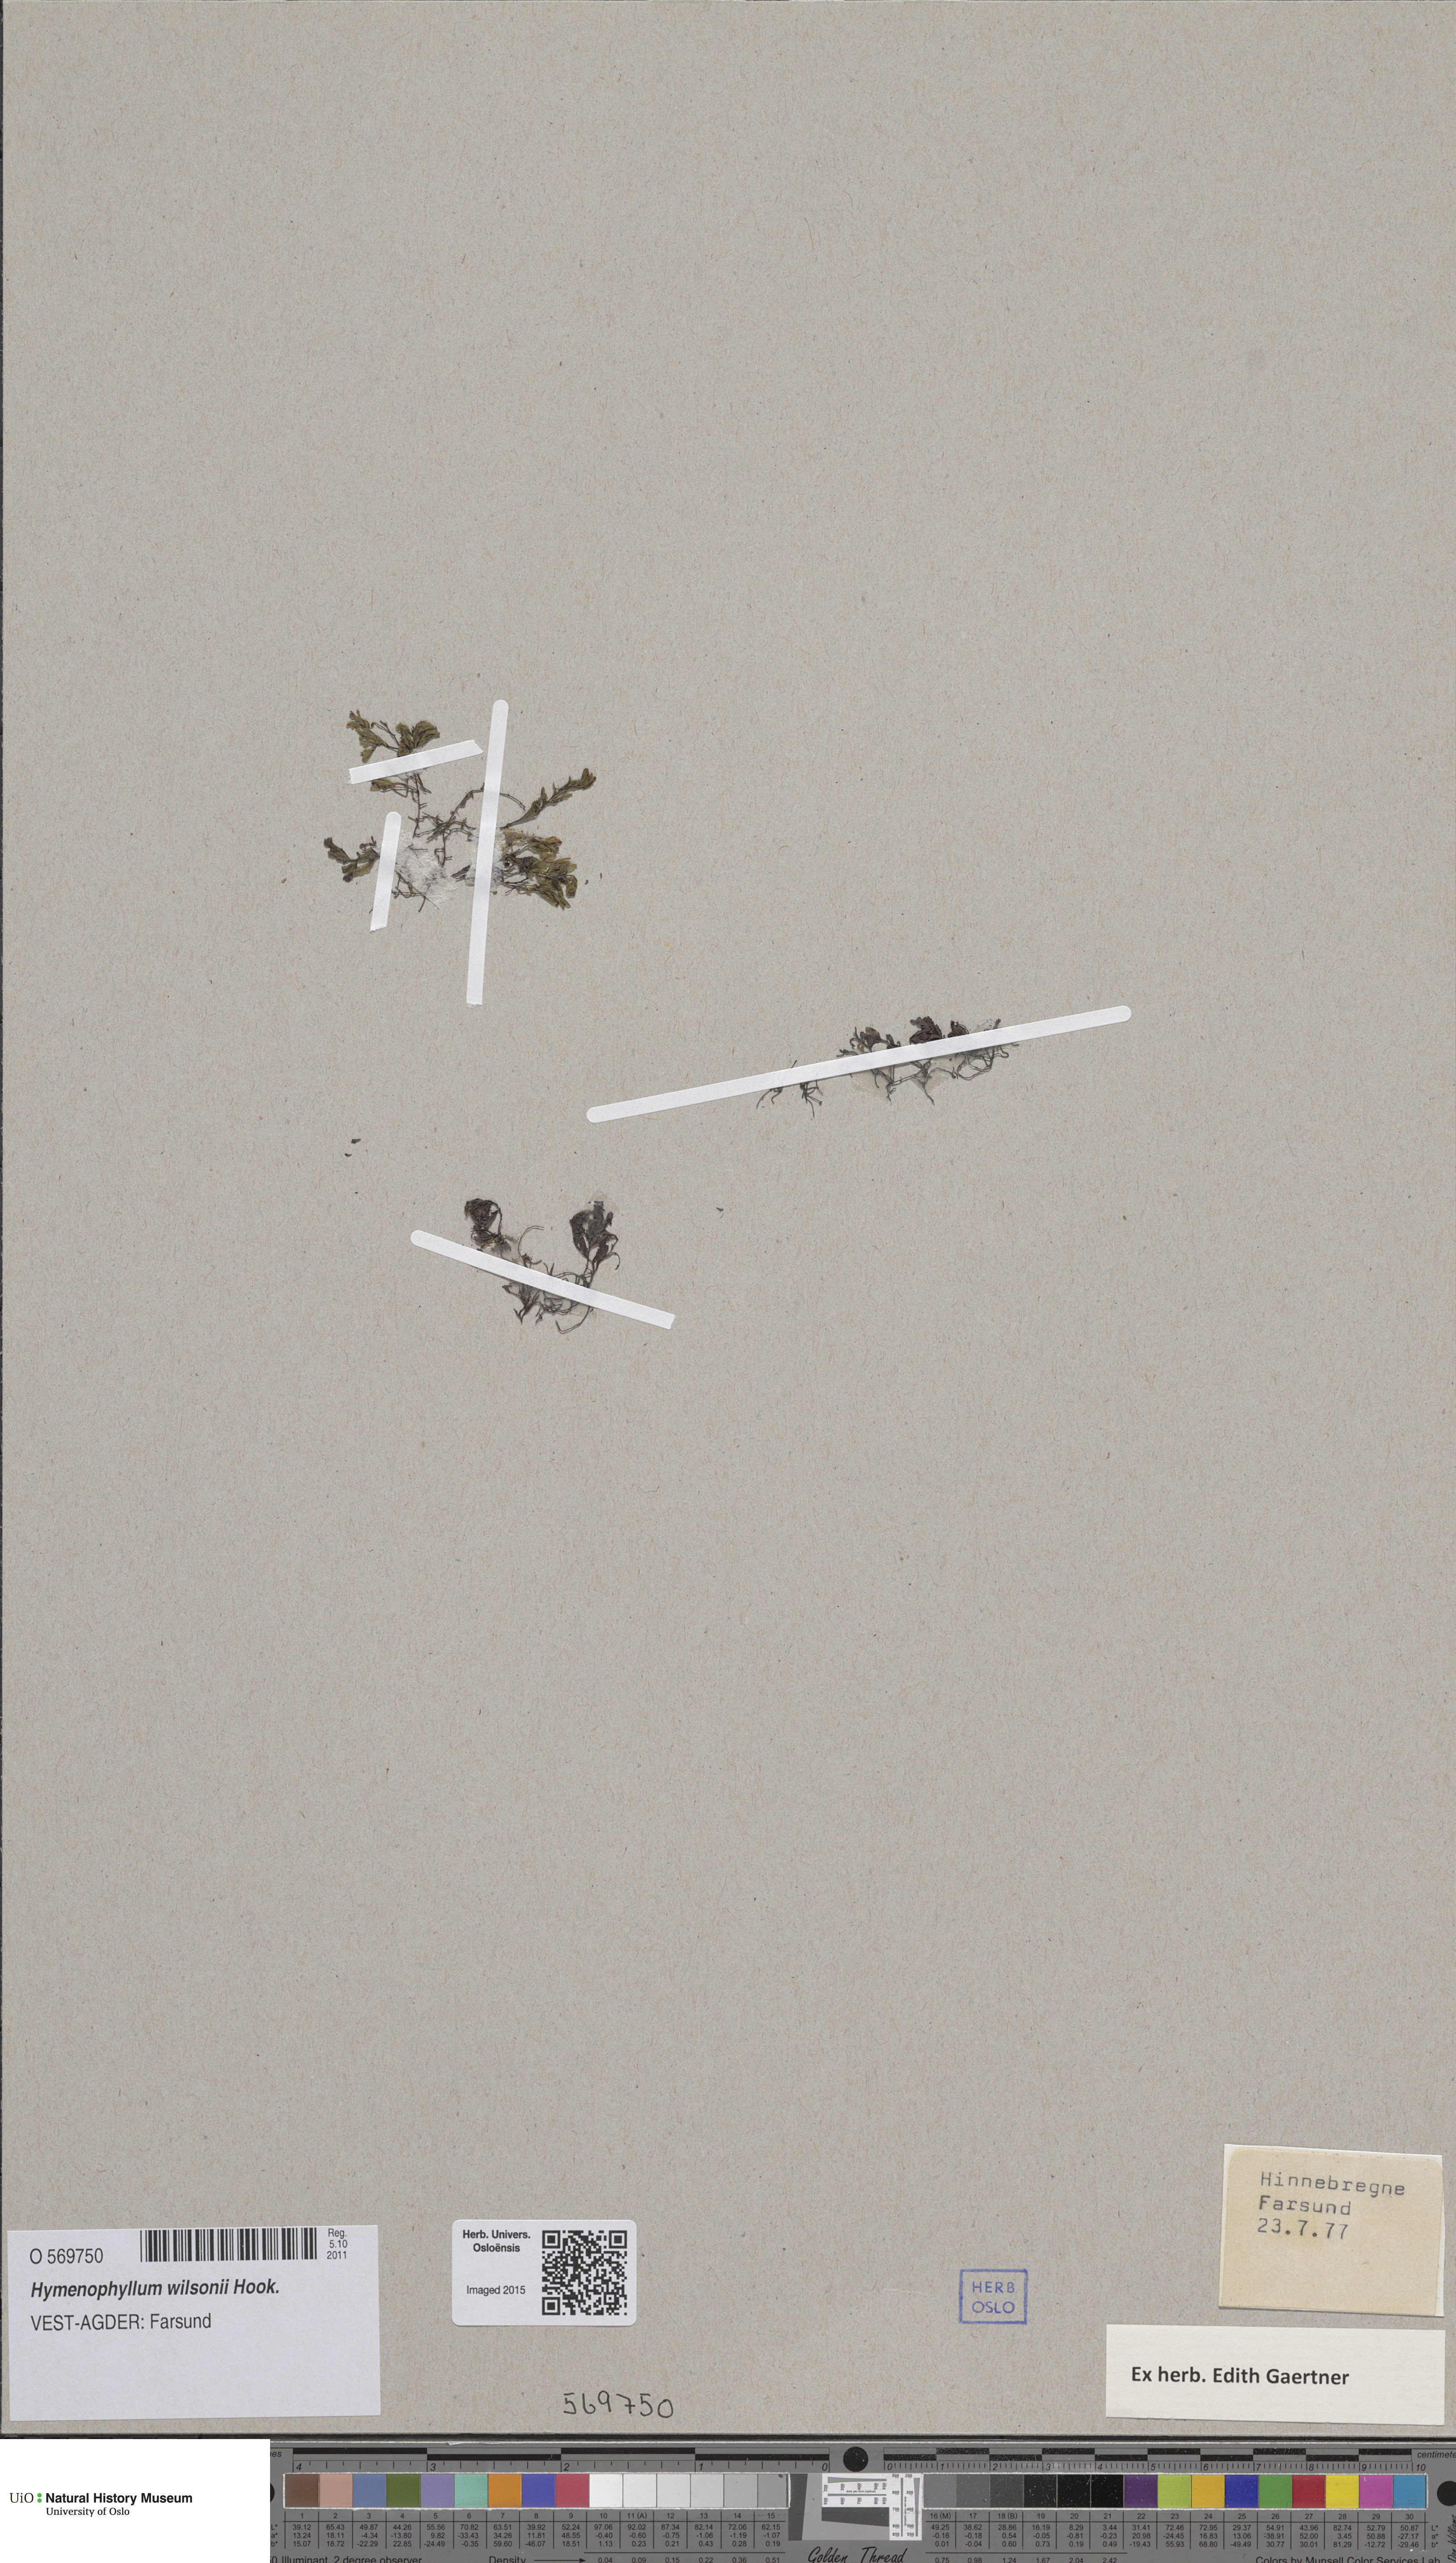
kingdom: Plantae
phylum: Tracheophyta
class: Polypodiopsida
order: Hymenophyllales
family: Hymenophyllaceae
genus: Hymenophyllum
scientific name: Hymenophyllum peltatum
